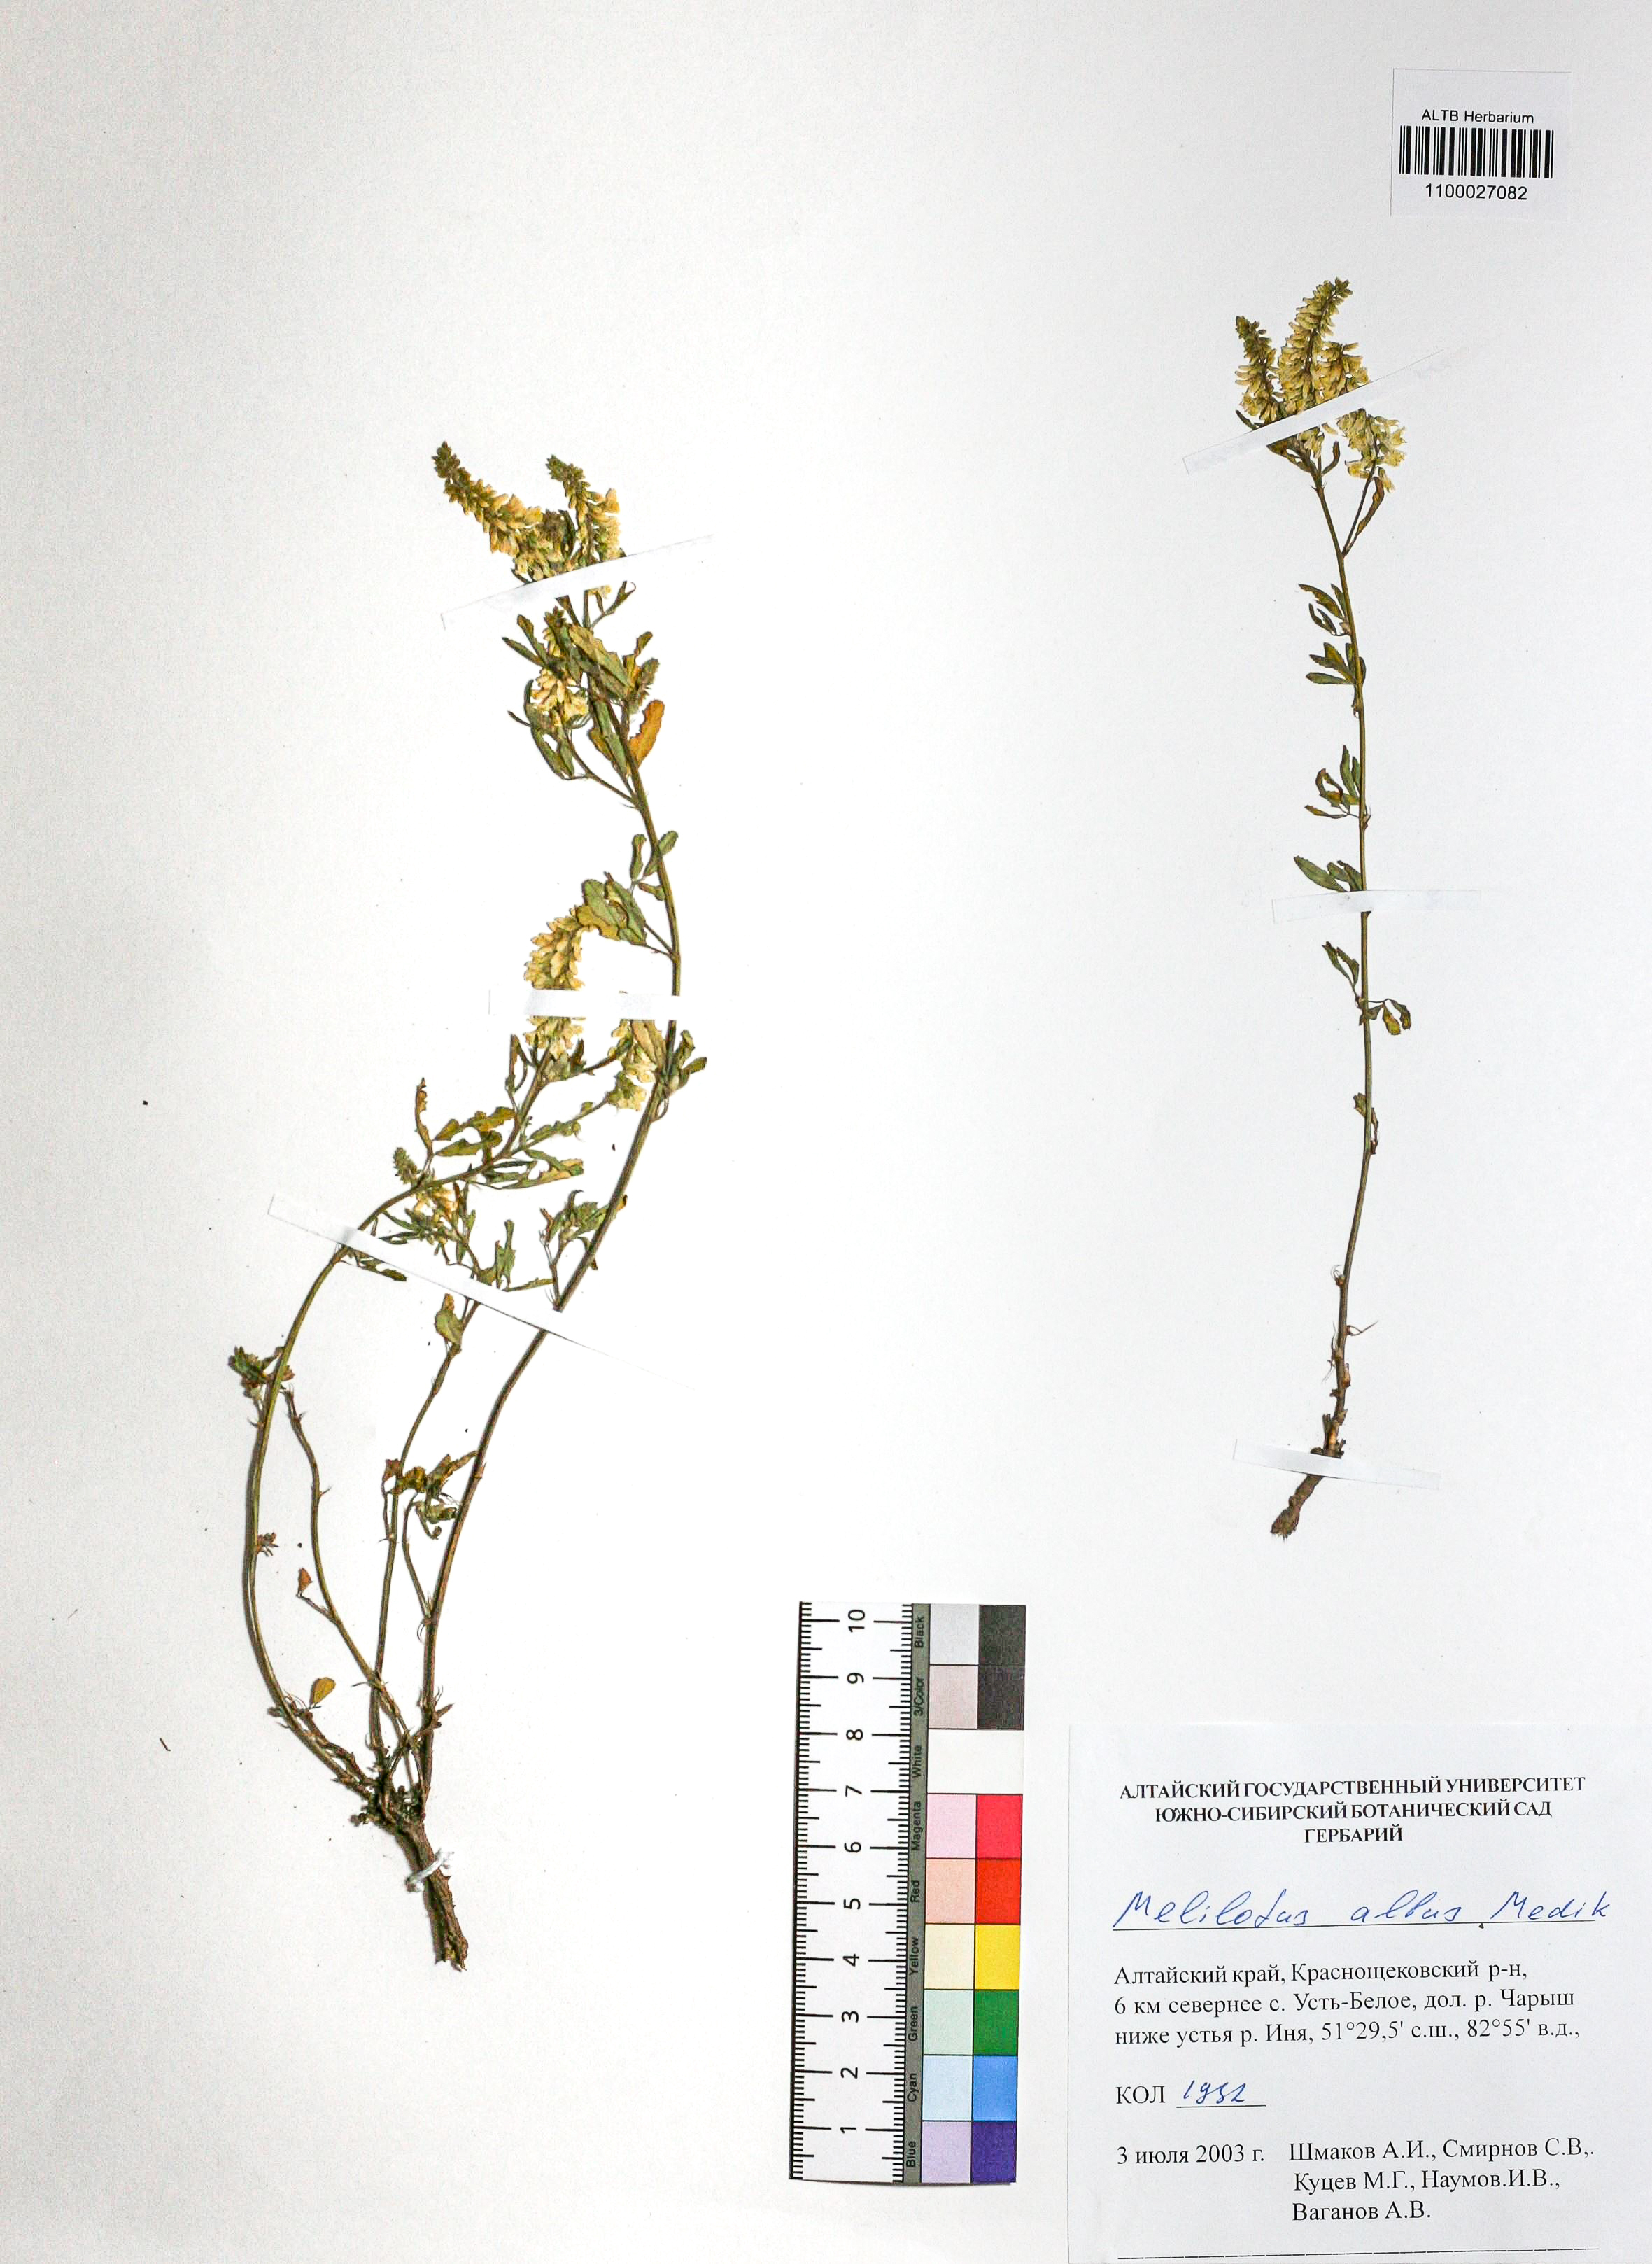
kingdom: Plantae
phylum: Tracheophyta
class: Magnoliopsida
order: Fabales
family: Fabaceae
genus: Melilotus
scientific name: Melilotus albus
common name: White melilot
